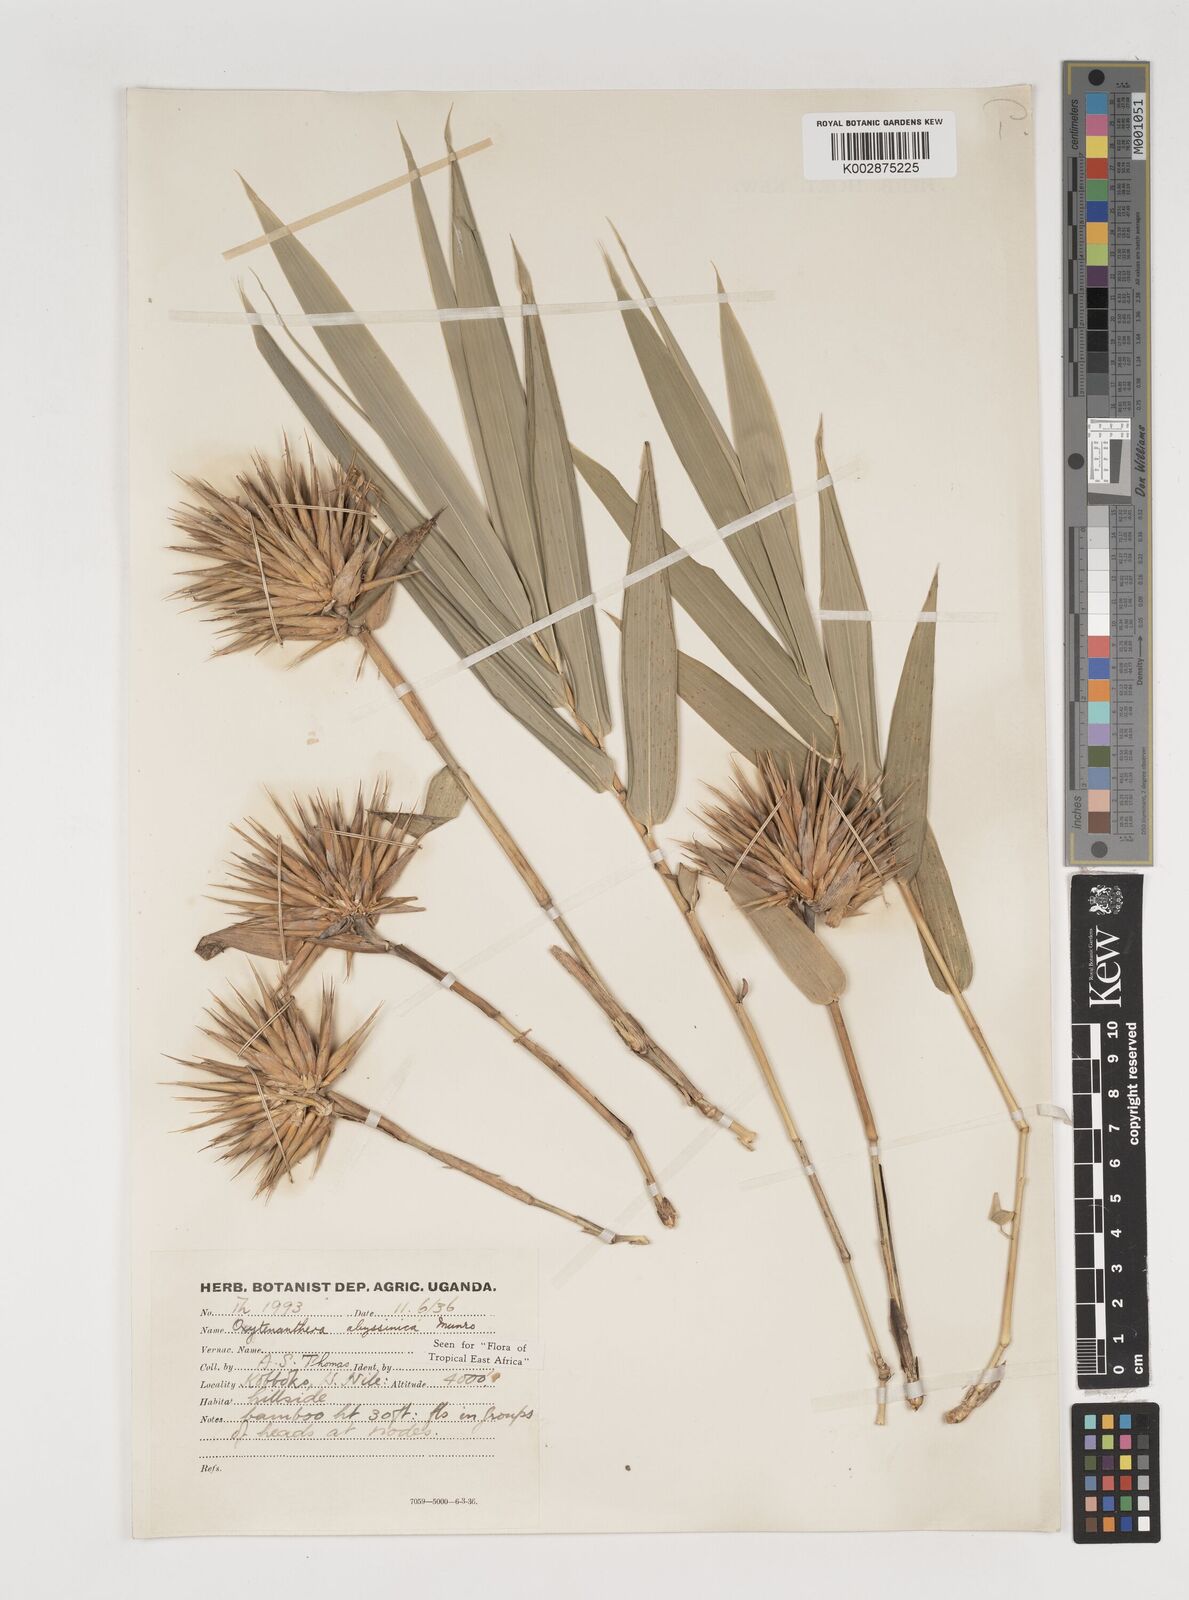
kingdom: Plantae
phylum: Tracheophyta
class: Liliopsida
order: Poales
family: Poaceae
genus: Oxytenanthera
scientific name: Oxytenanthera abyssinica
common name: Wine bamboo
